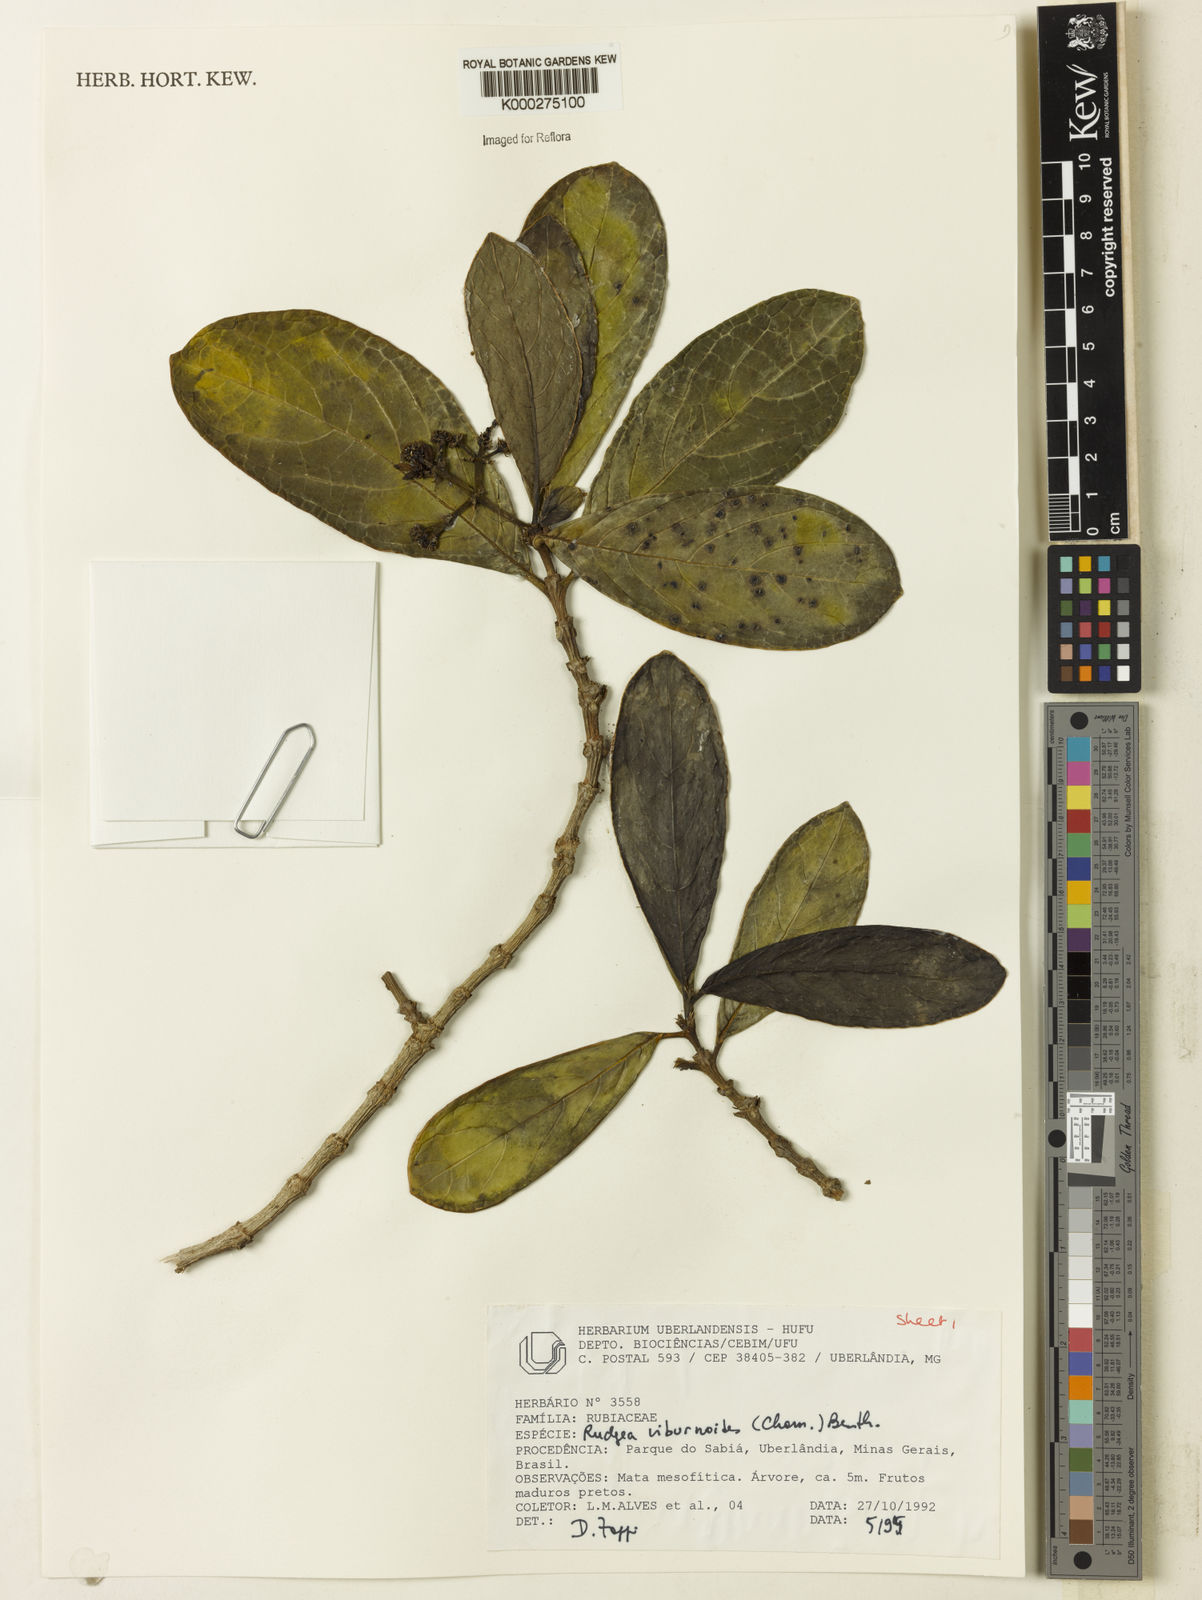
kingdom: Plantae
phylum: Tracheophyta
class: Magnoliopsida
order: Gentianales
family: Rubiaceae
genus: Rudgea
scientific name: Rudgea viburnoides
